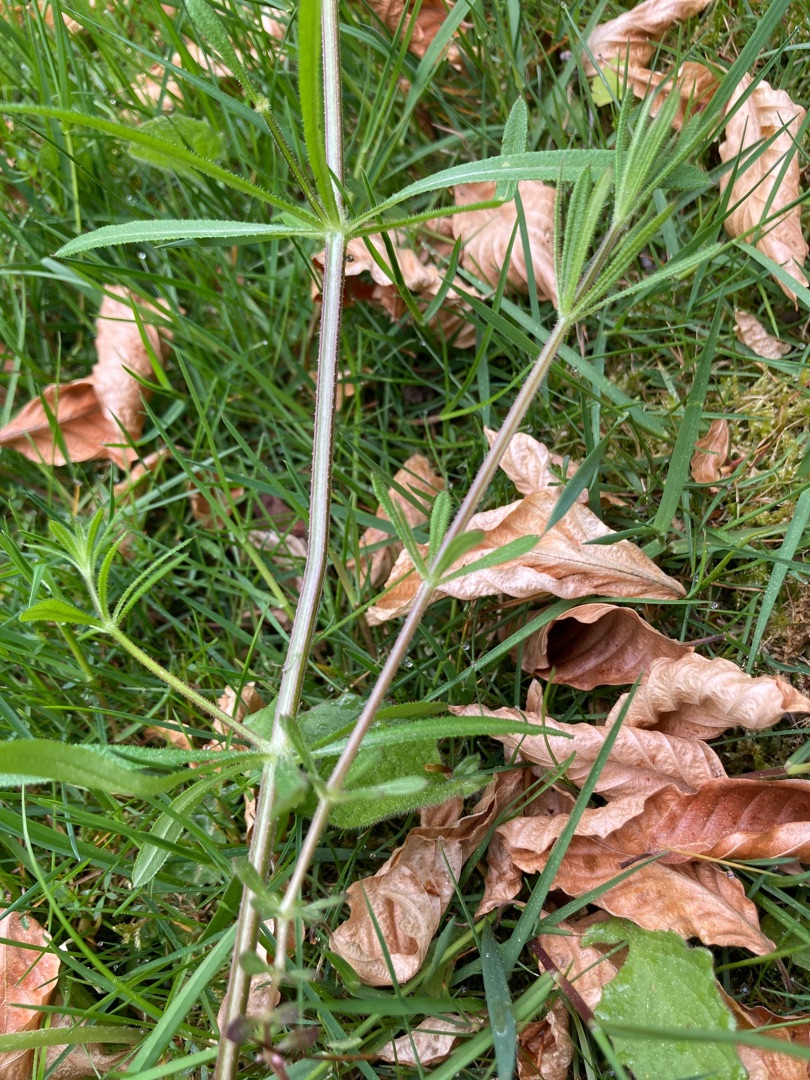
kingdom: Plantae
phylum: Tracheophyta
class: Magnoliopsida
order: Gentianales
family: Rubiaceae
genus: Galium
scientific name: Galium aparine
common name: Burre-snerre
